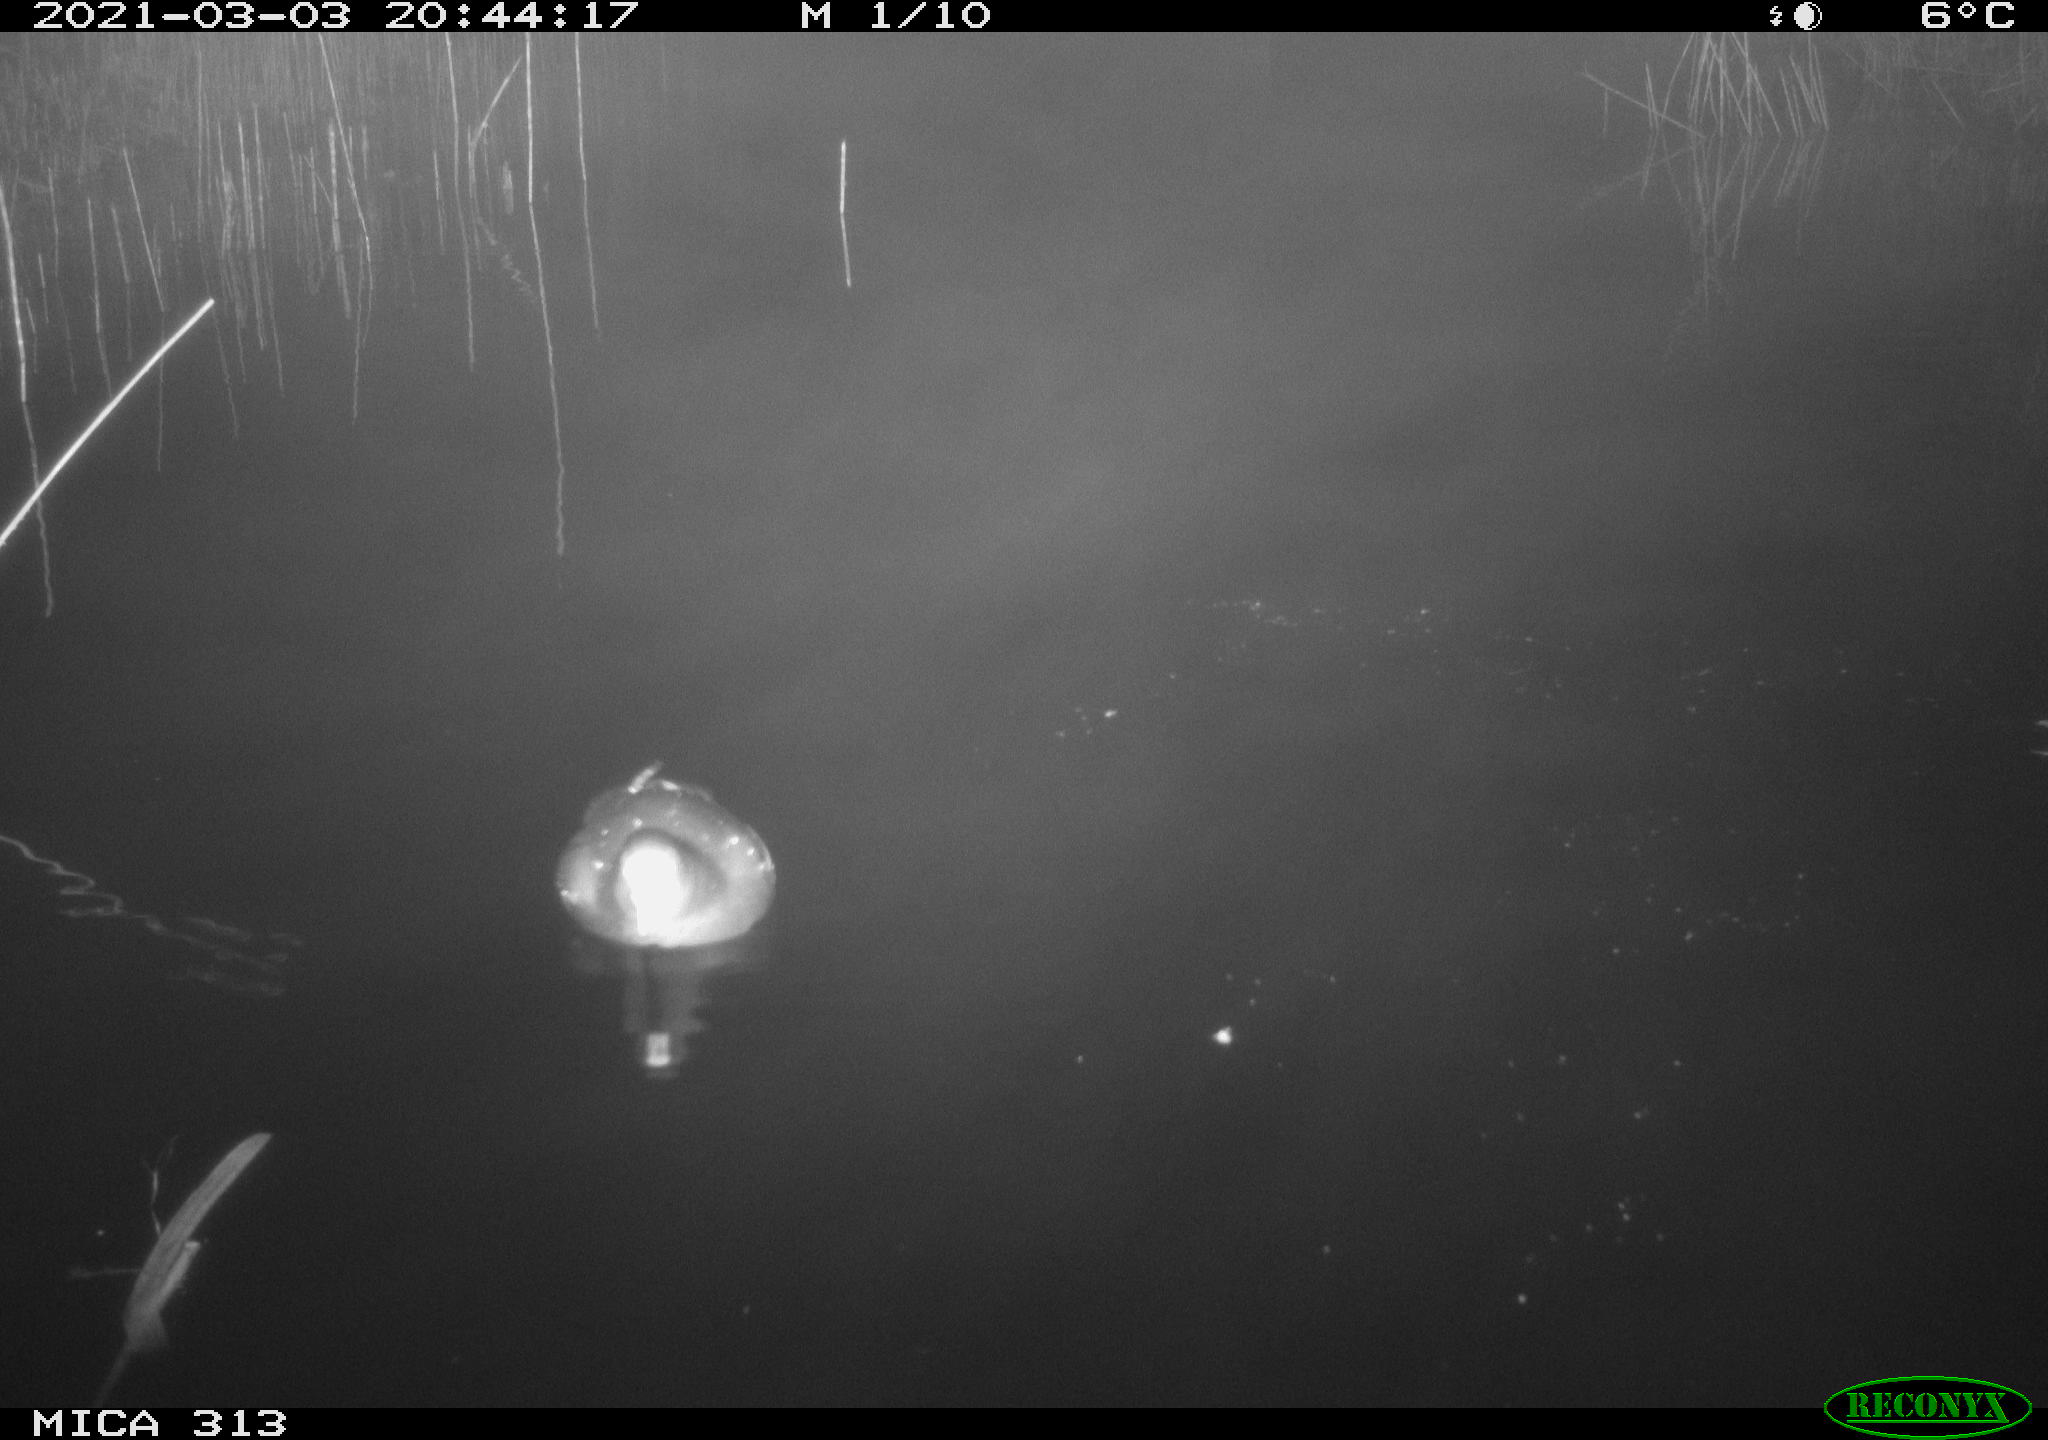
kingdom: Animalia
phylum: Chordata
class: Aves
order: Gruiformes
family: Rallidae
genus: Fulica
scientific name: Fulica atra
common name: Eurasian coot
